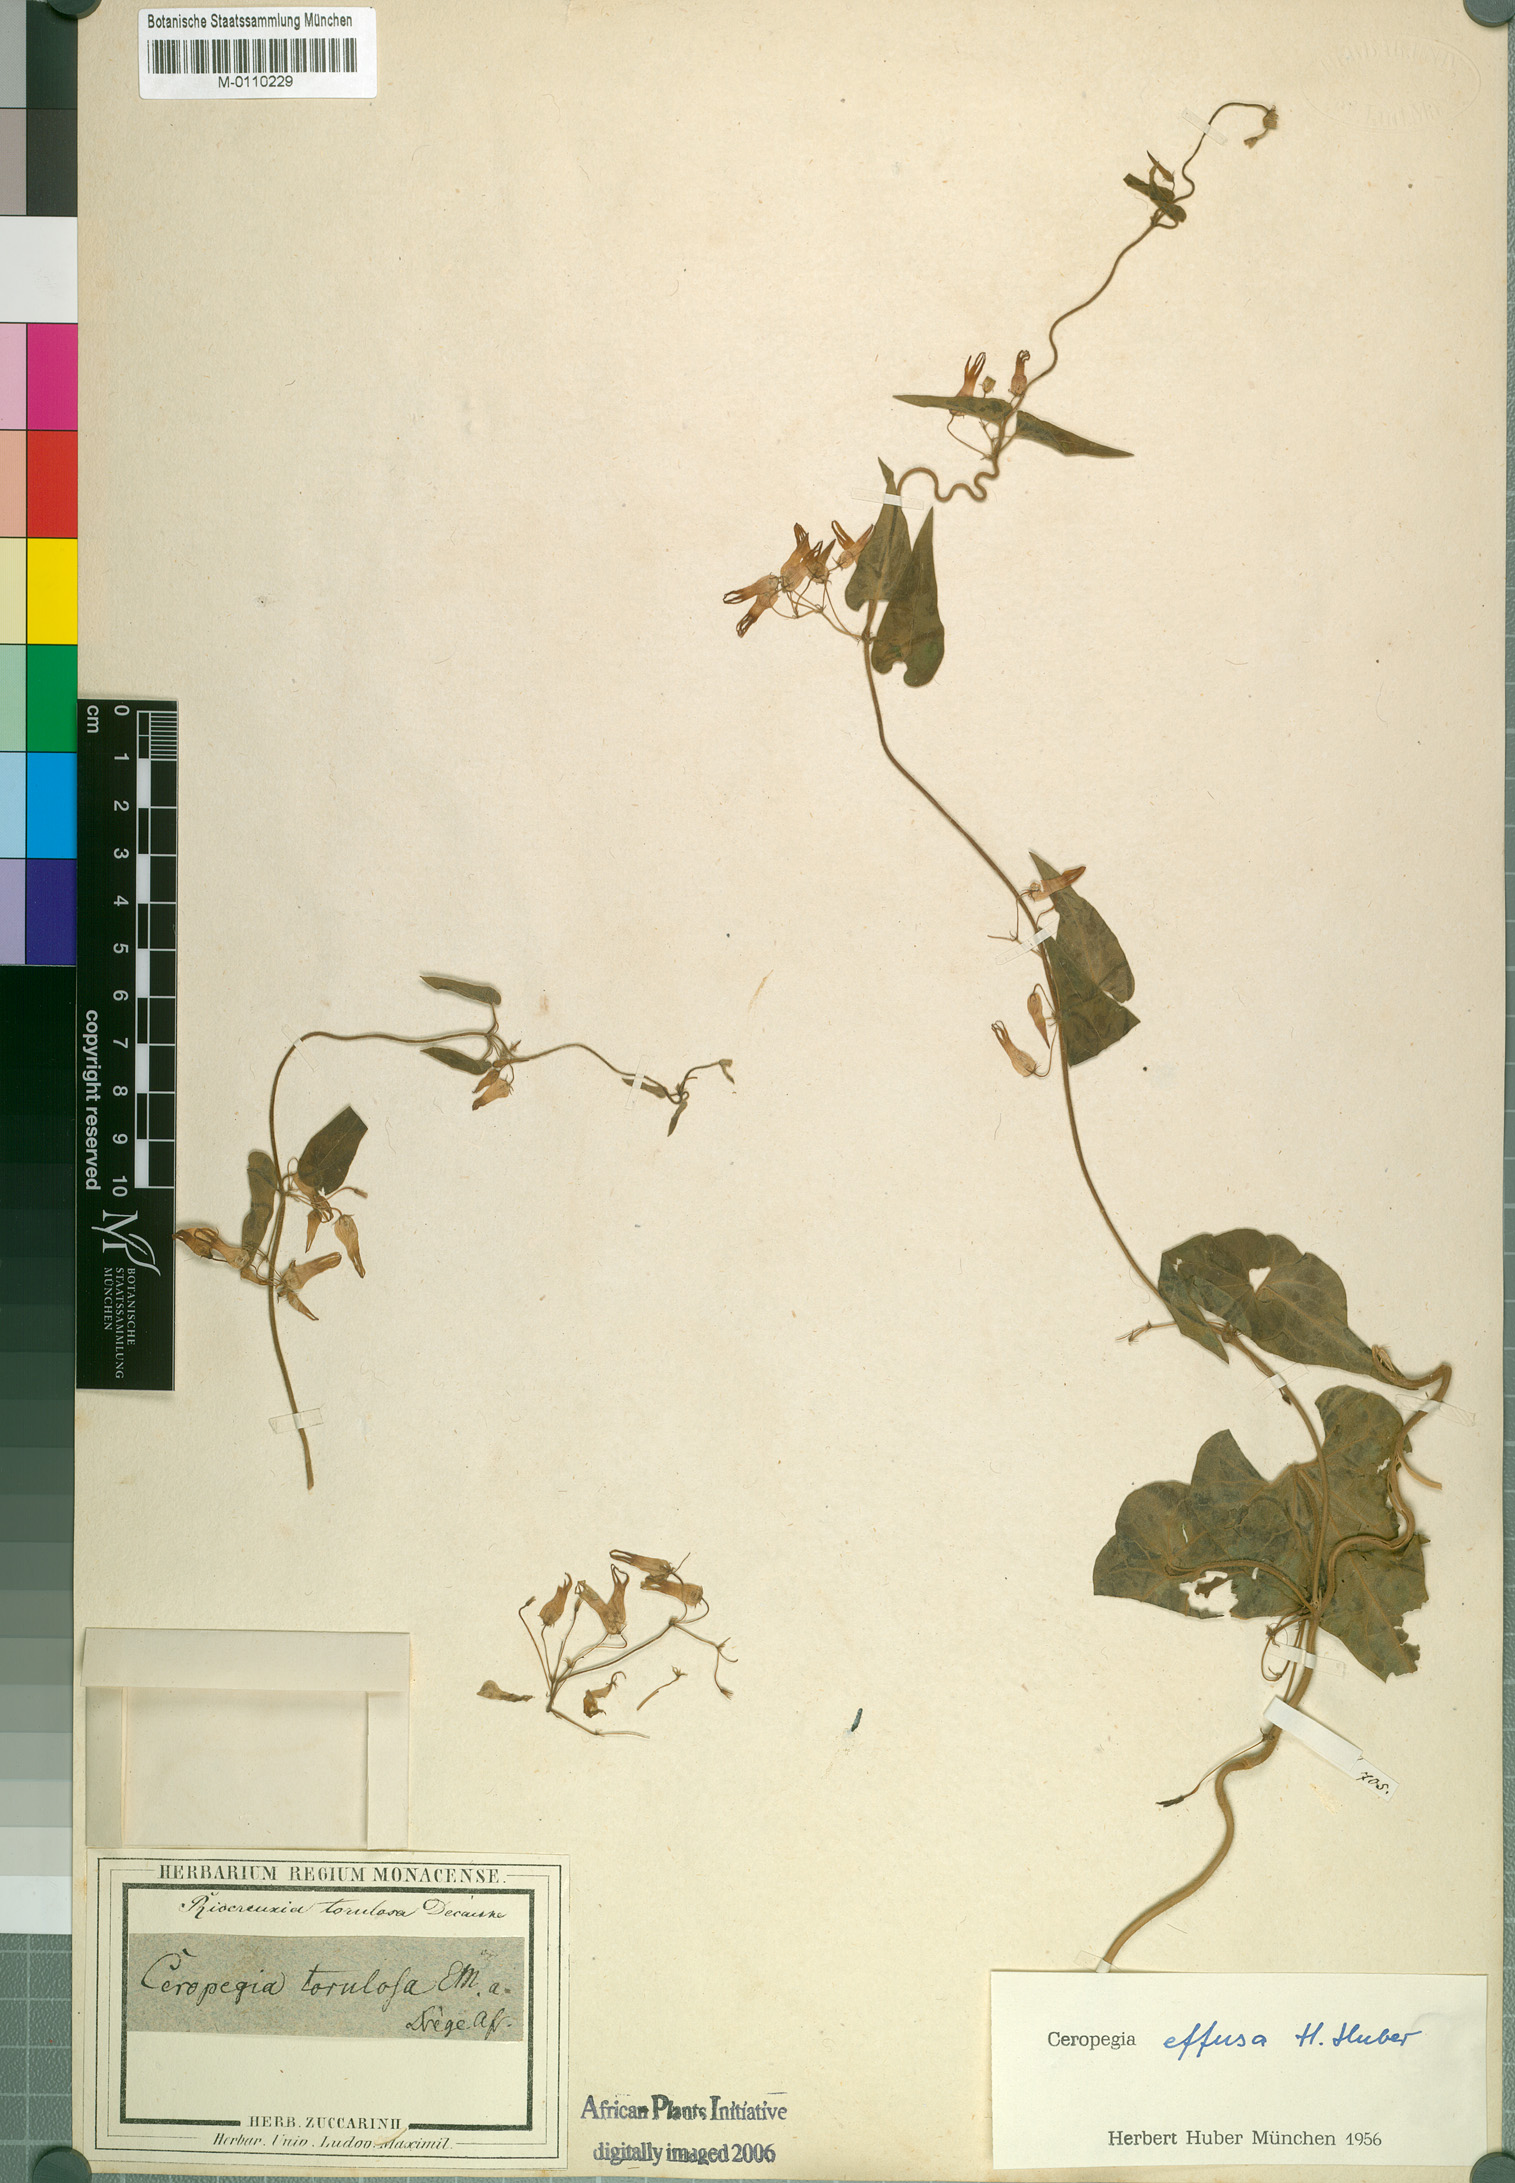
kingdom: Plantae
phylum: Tracheophyta
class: Magnoliopsida
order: Gentianales
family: Apocynaceae
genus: Riocreuxia
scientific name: Riocreuxia torulosa
